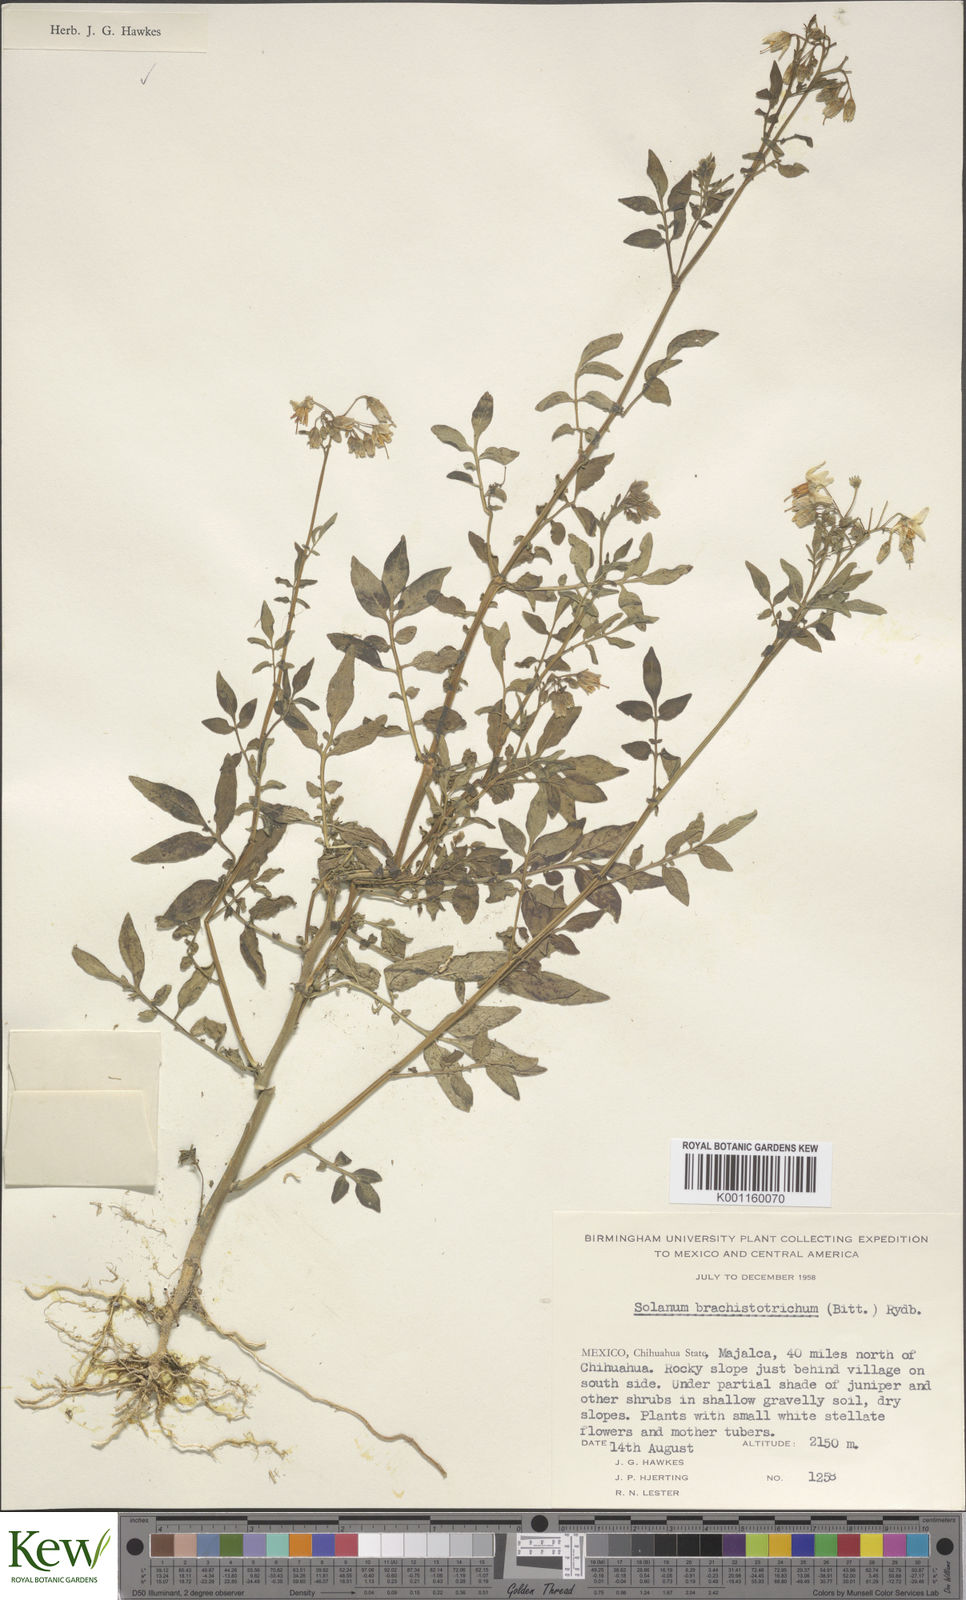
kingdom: Plantae
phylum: Tracheophyta
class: Magnoliopsida
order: Solanales
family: Solanaceae
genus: Solanum
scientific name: Solanum
